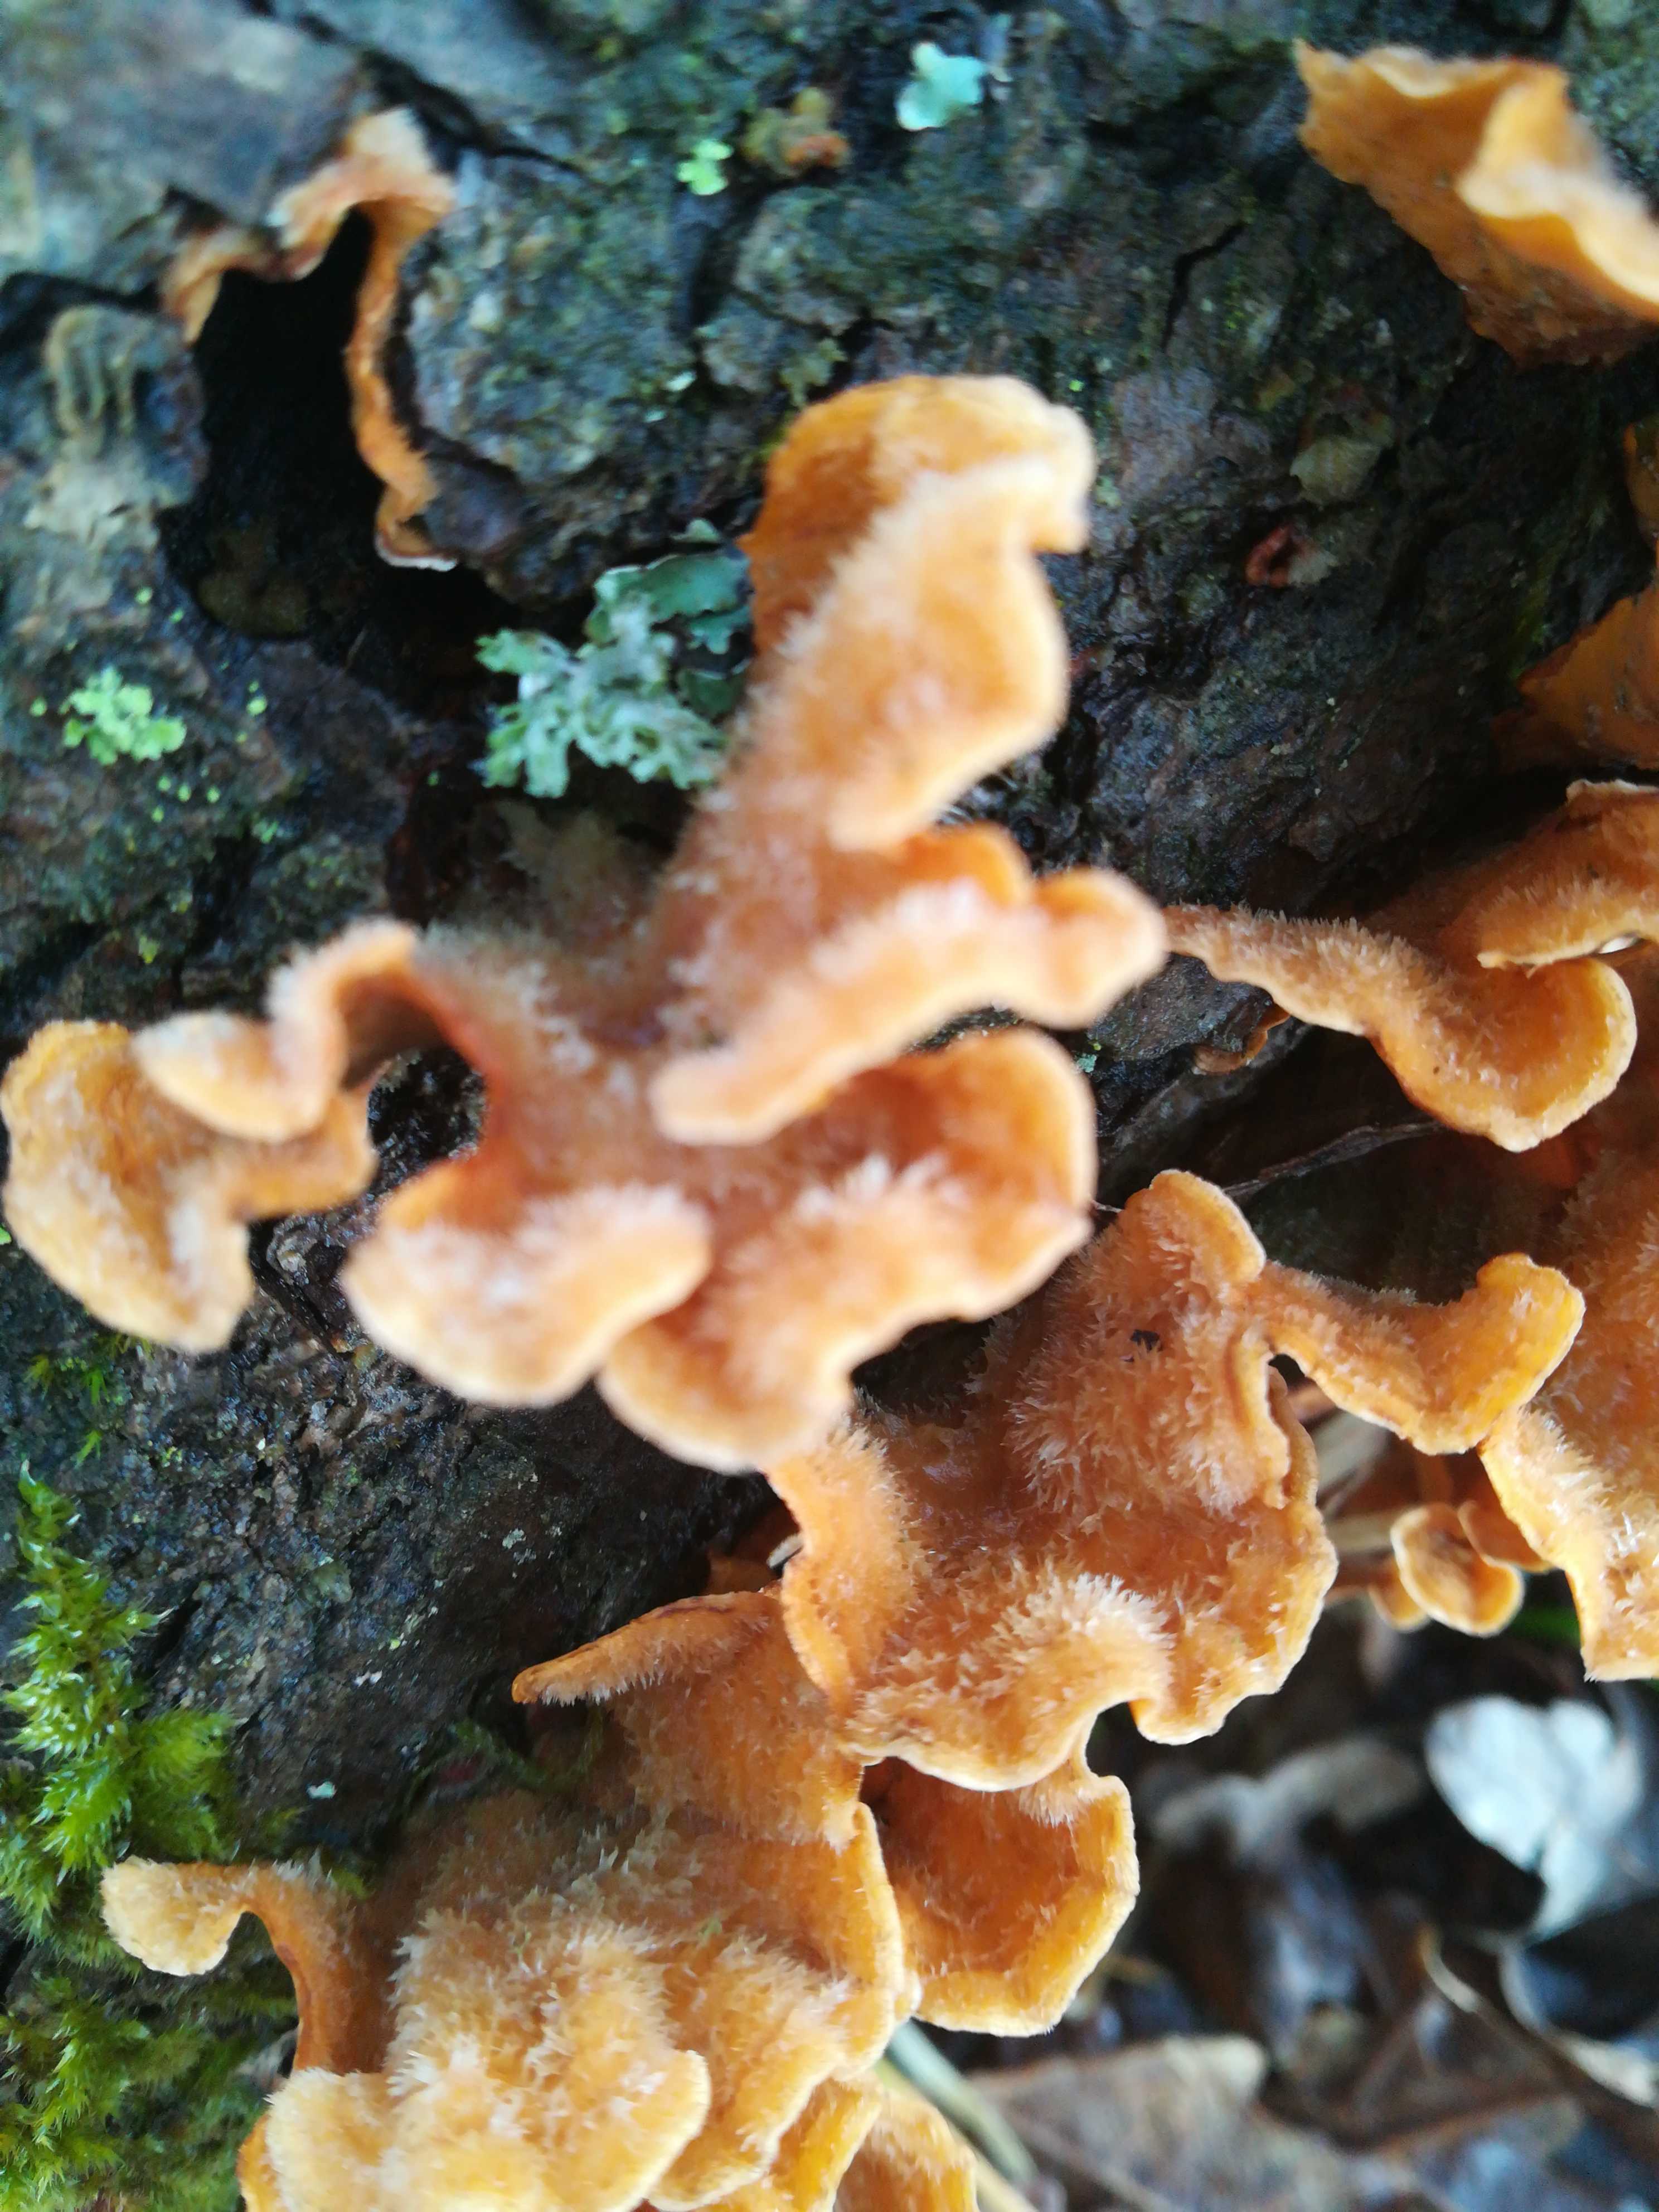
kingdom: Fungi
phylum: Basidiomycota
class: Agaricomycetes
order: Russulales
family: Stereaceae
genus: Stereum
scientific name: Stereum hirsutum
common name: håret lædersvamp
